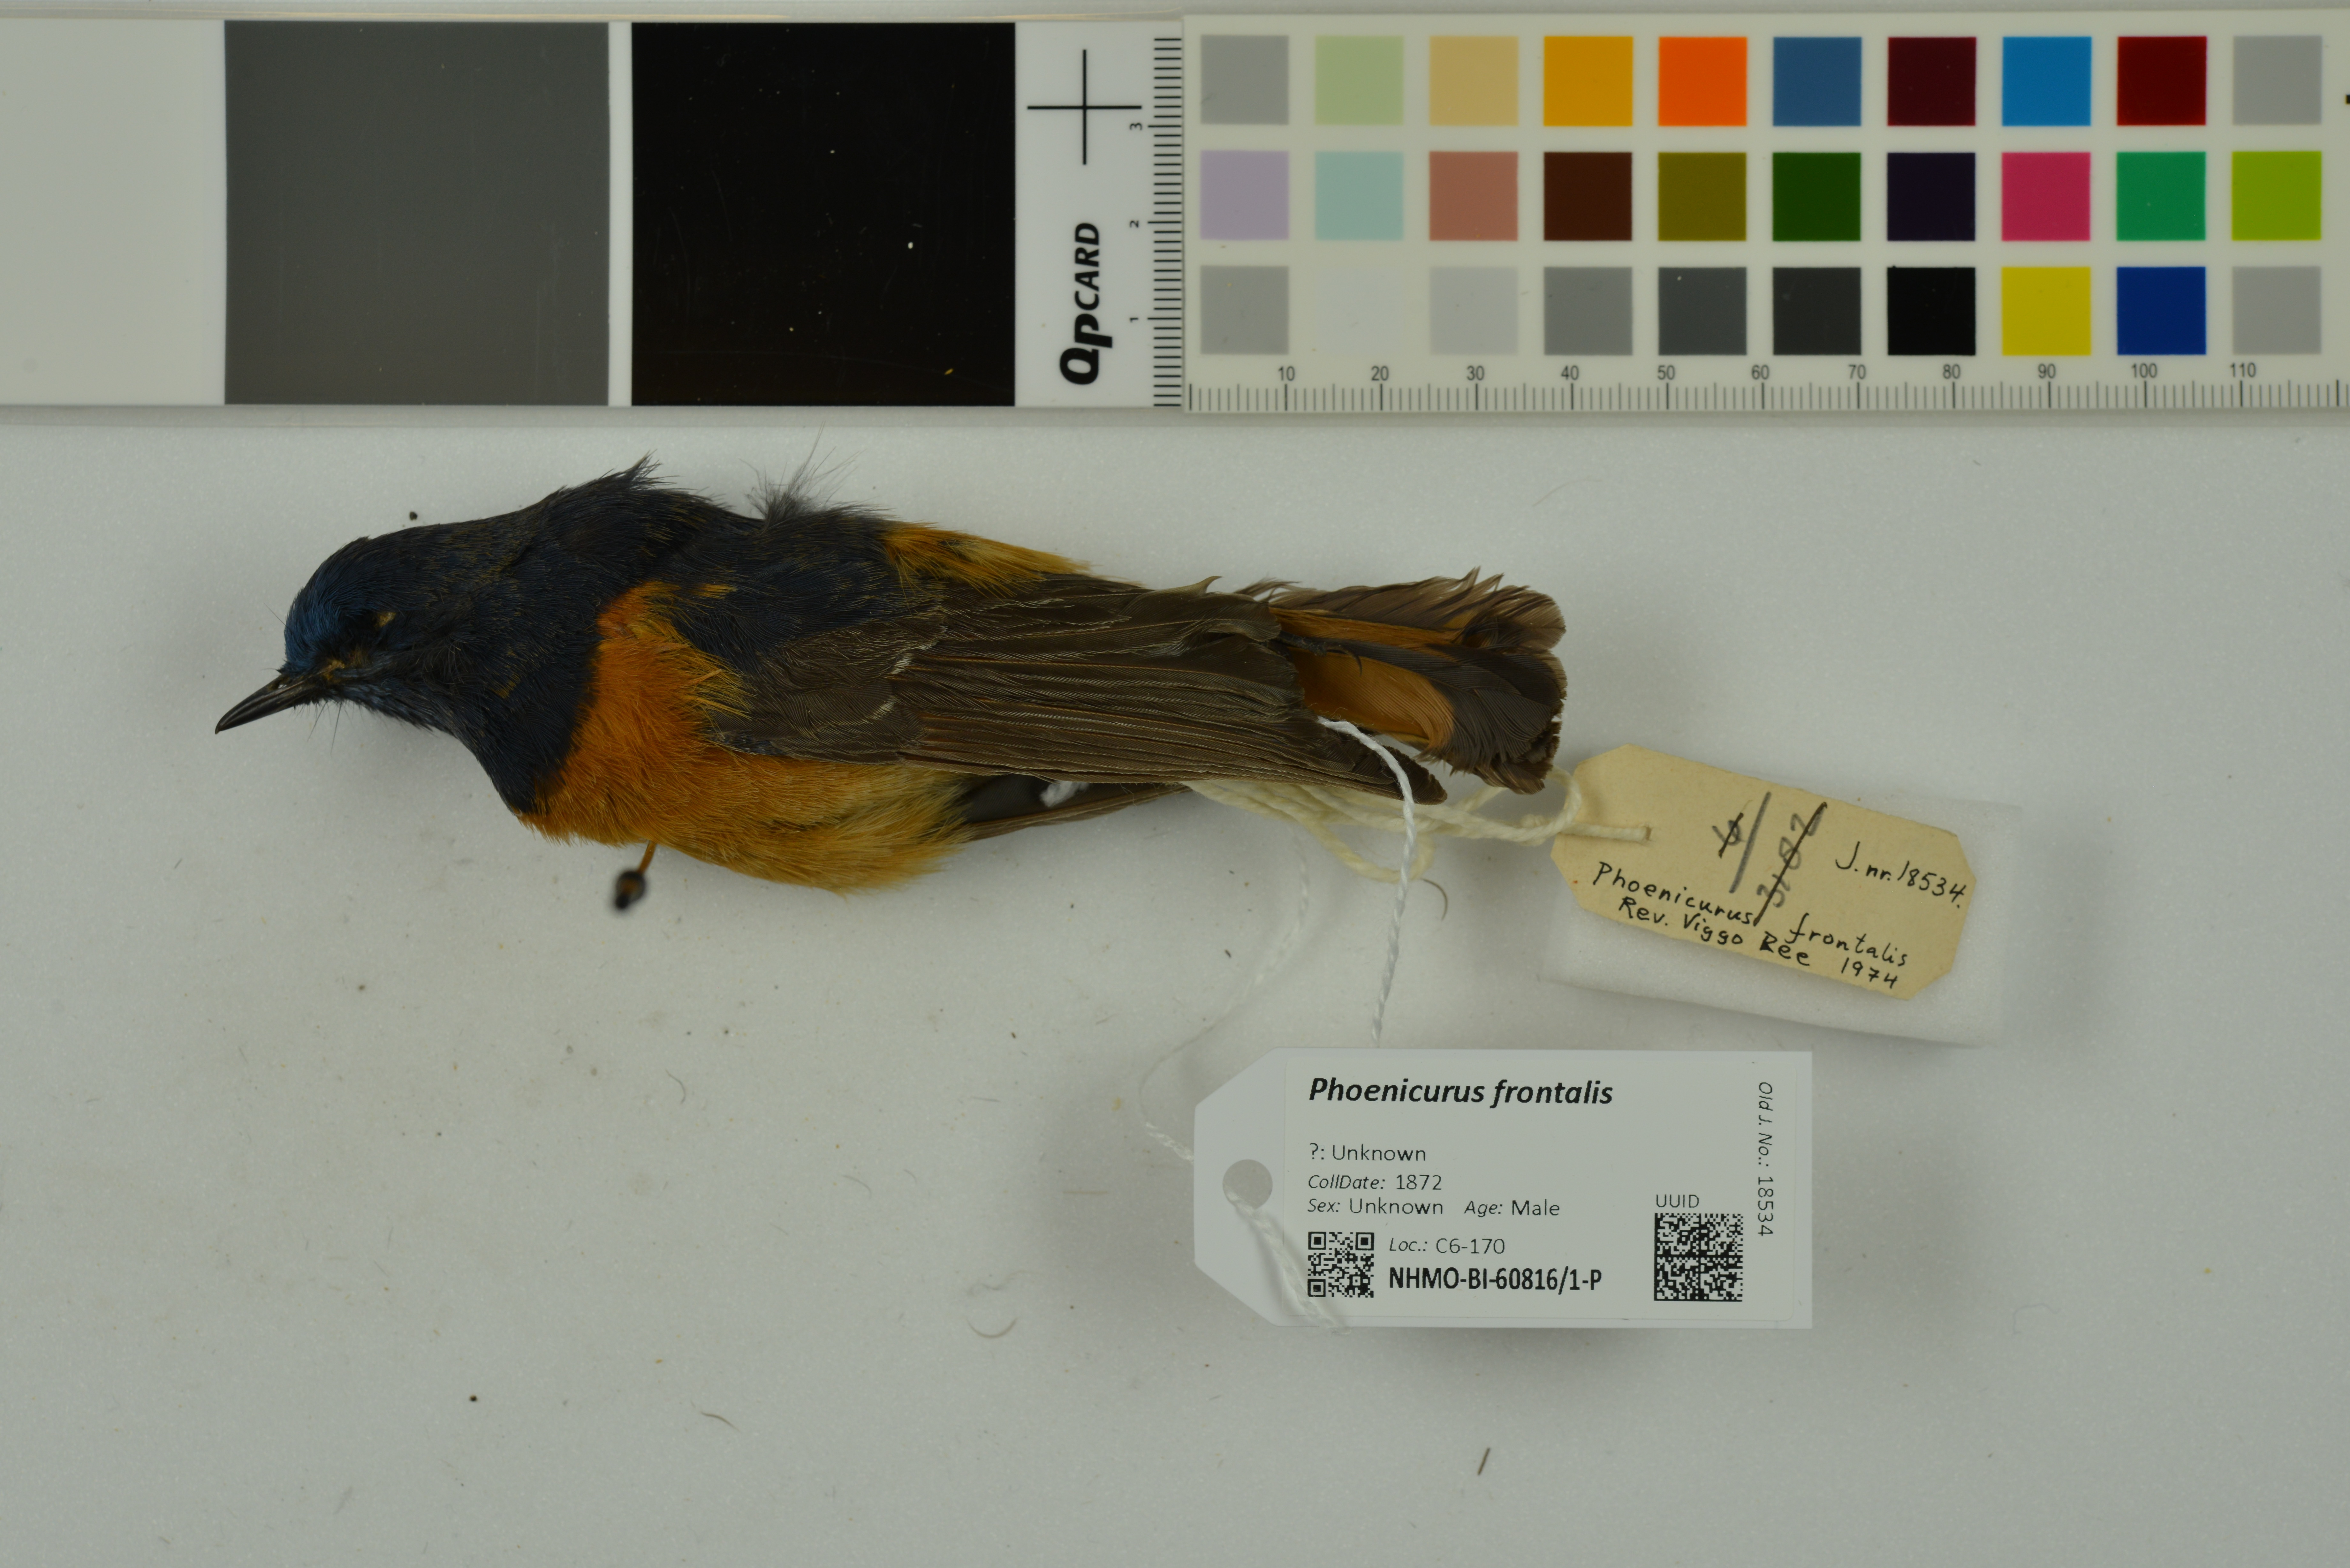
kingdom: Animalia
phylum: Chordata
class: Aves
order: Passeriformes
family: Muscicapidae
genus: Phoenicurus
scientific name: Phoenicurus frontalis
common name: Blue-fronted redstart
